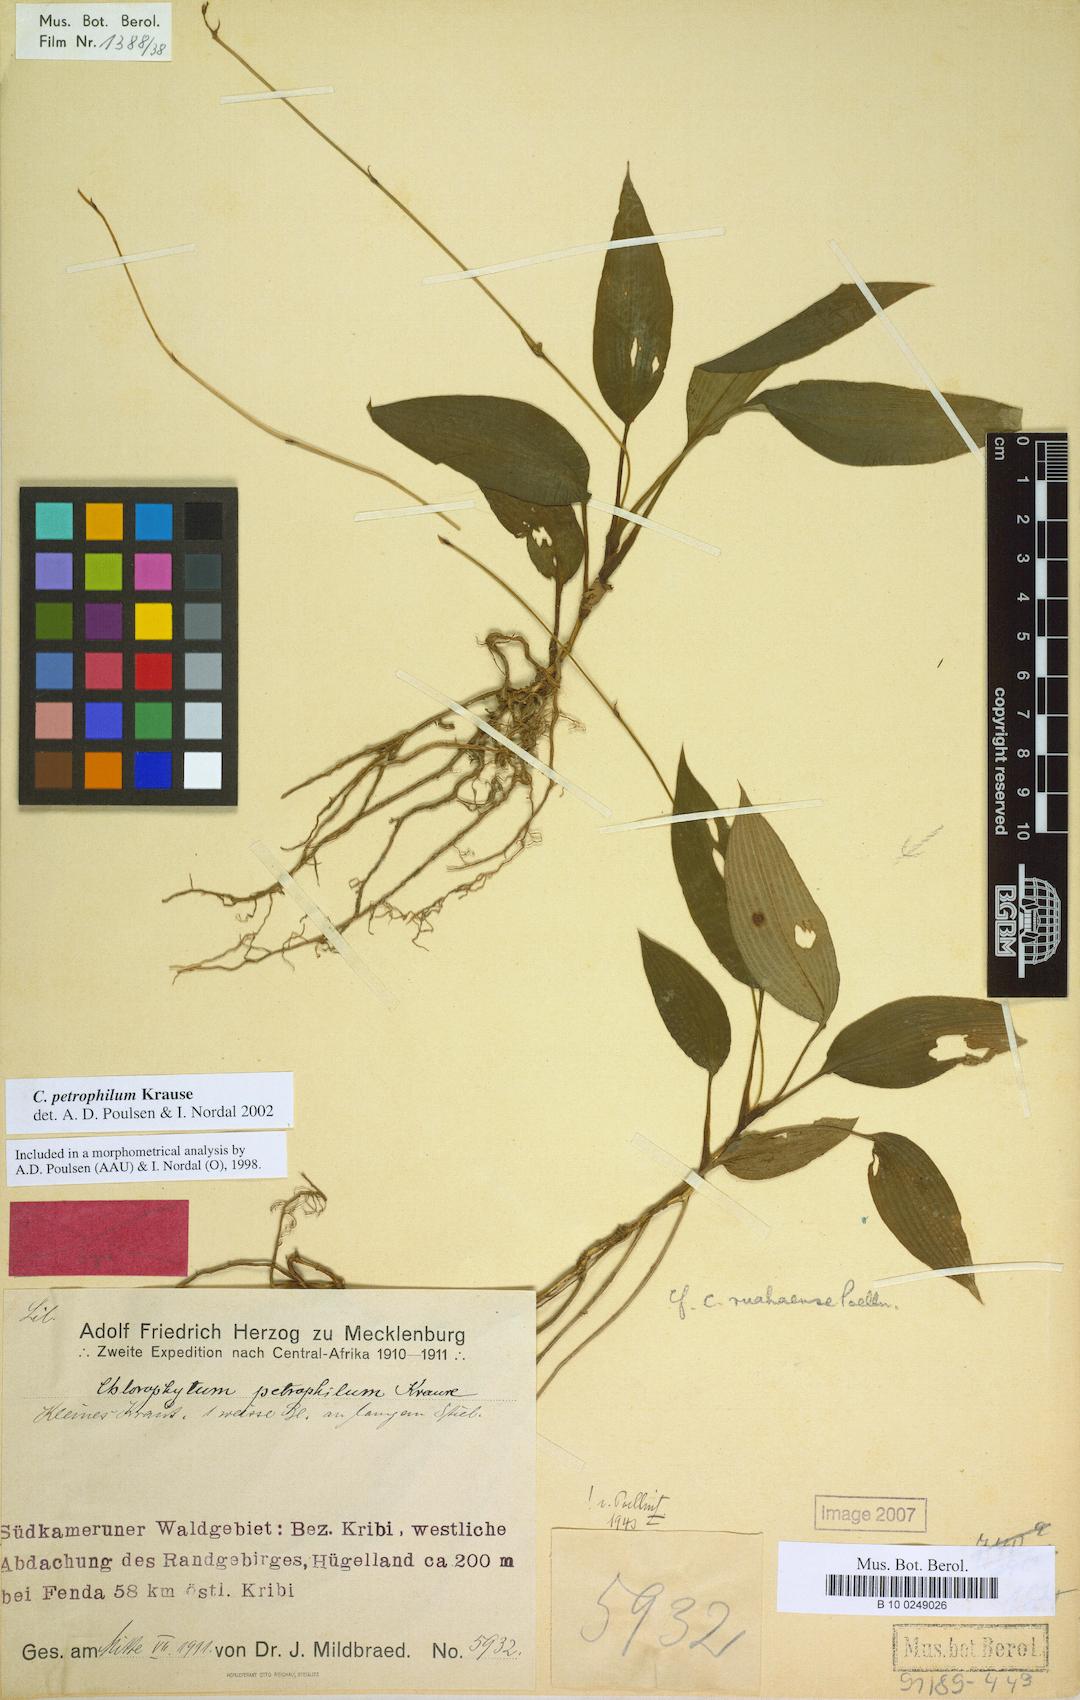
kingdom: Plantae
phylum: Tracheophyta
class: Liliopsida
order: Asparagales
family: Asparagaceae
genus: Chlorophytum
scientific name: Chlorophytum petrophilum
